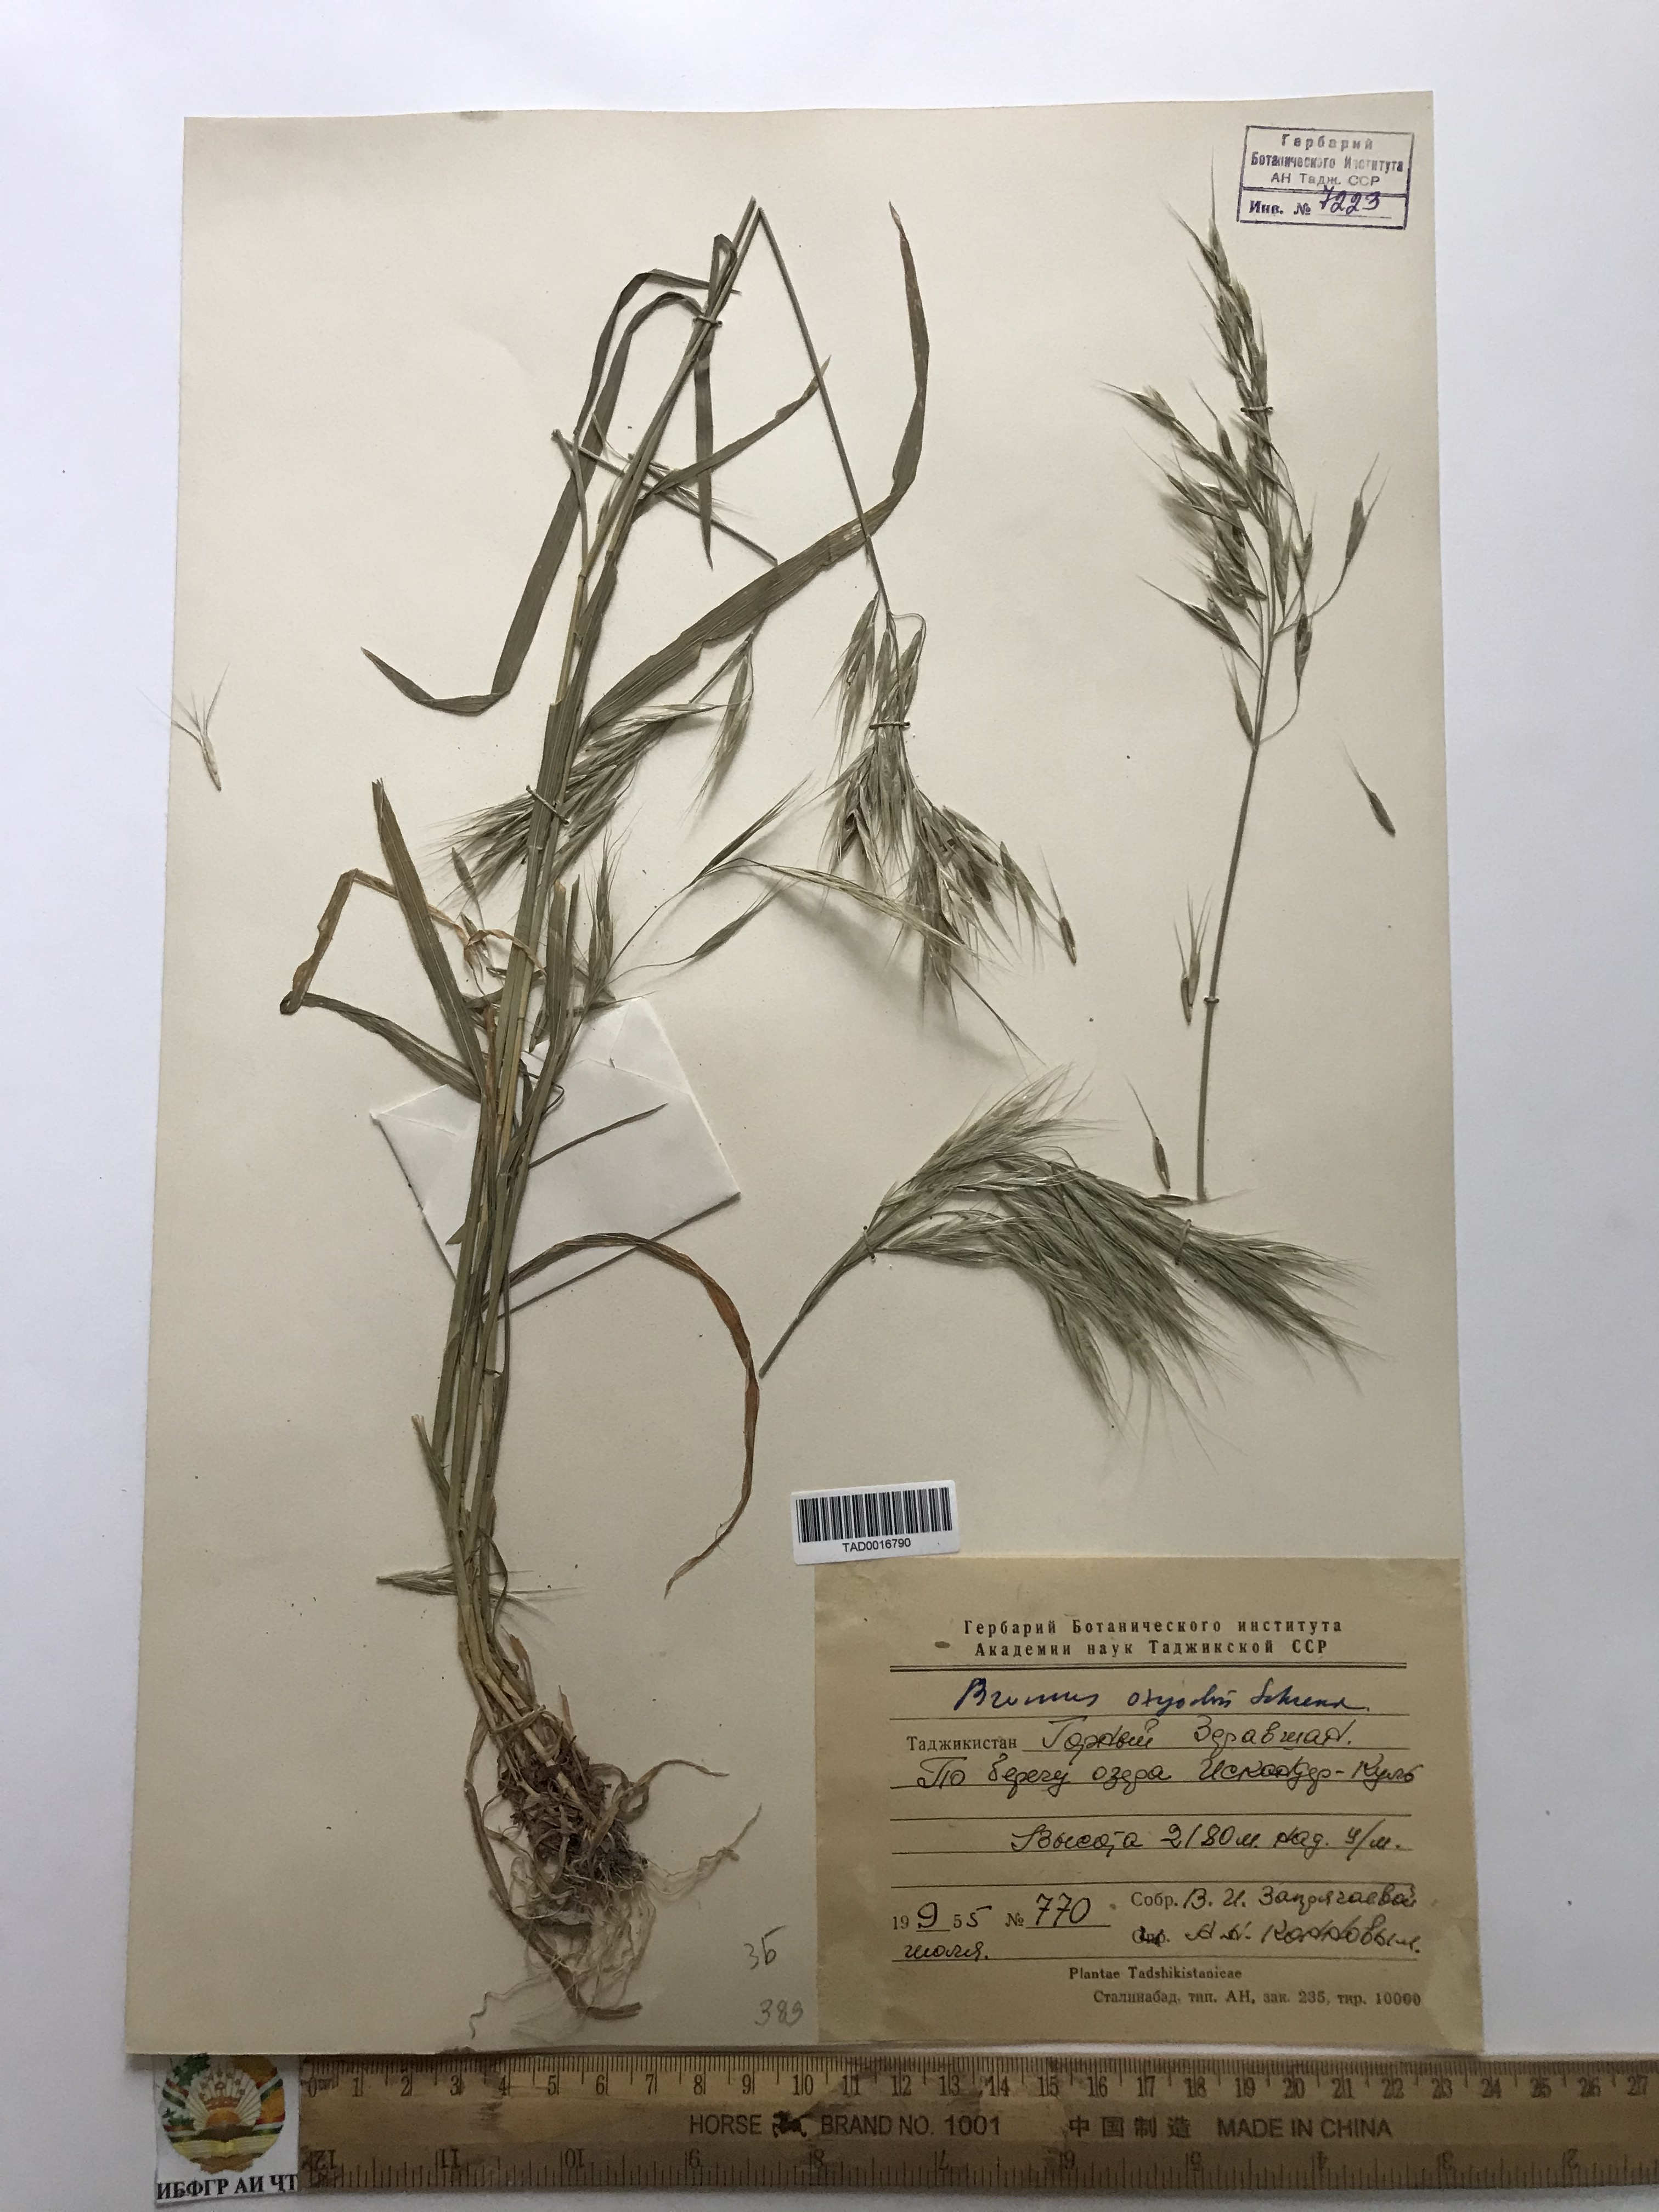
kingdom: Plantae
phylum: Tracheophyta
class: Liliopsida
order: Poales
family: Poaceae
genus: Bromus
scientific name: Bromus oxyodon
